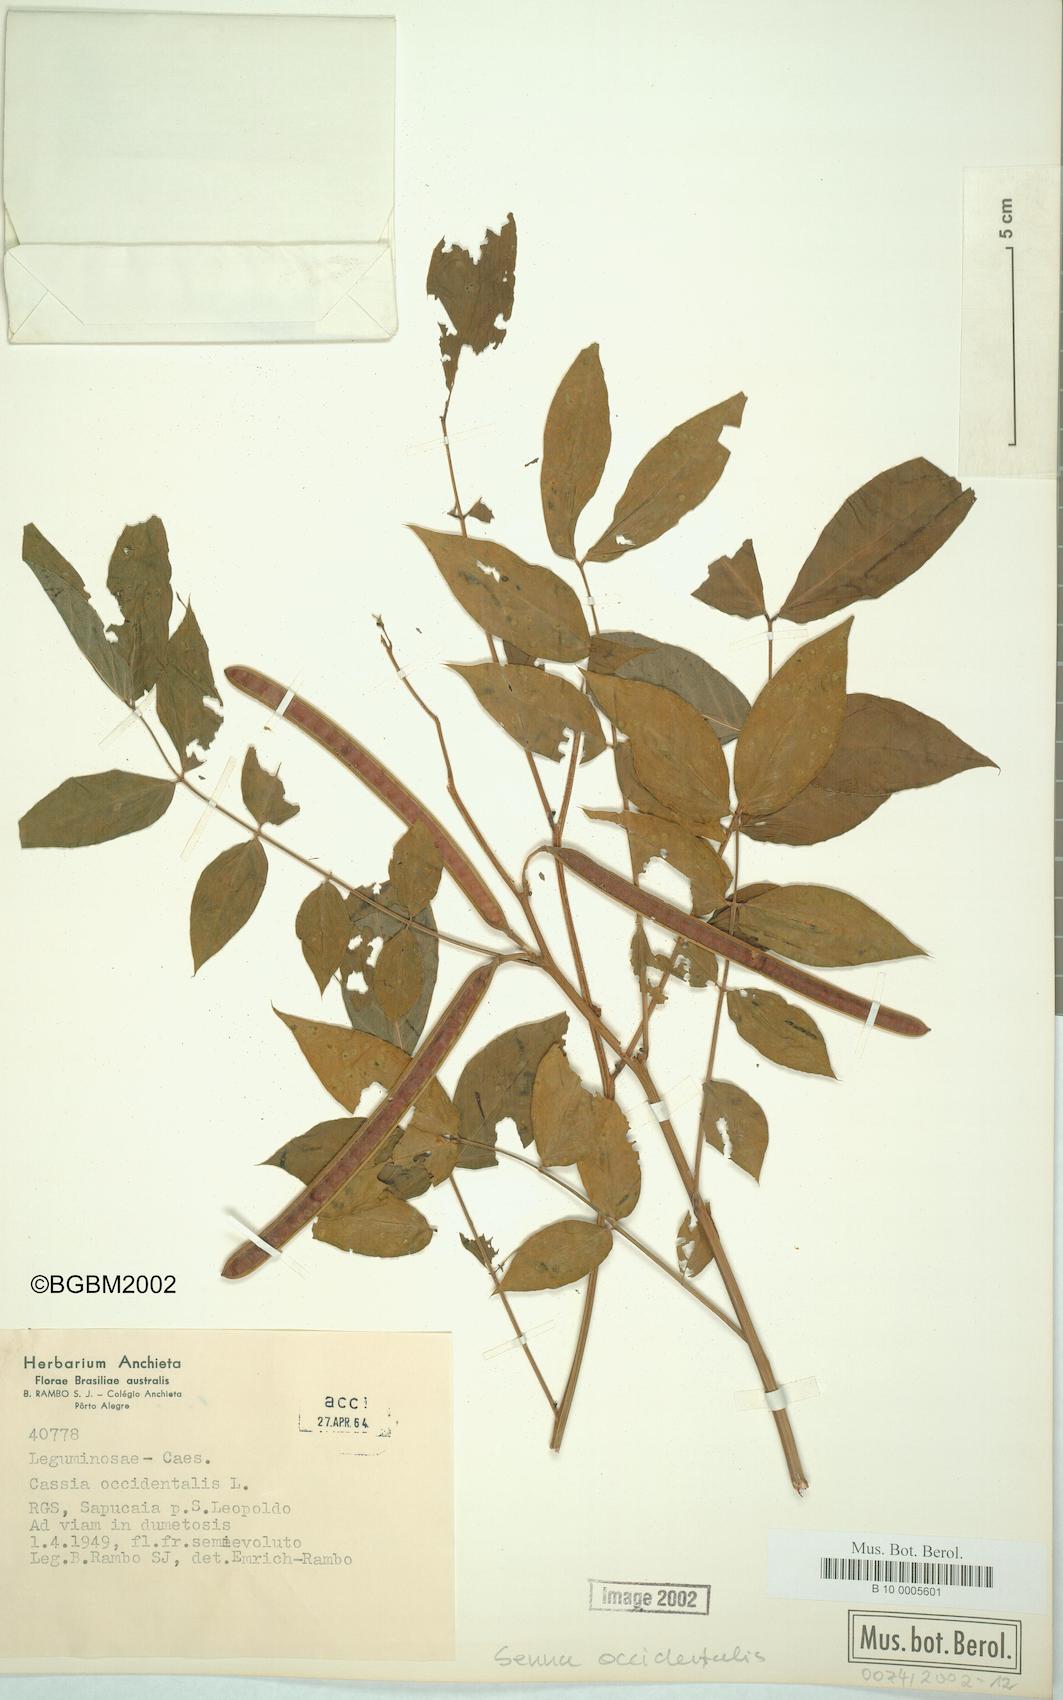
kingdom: Plantae
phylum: Tracheophyta
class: Magnoliopsida
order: Fabales
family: Fabaceae
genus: Senna
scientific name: Senna occidentalis
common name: Septicweed
